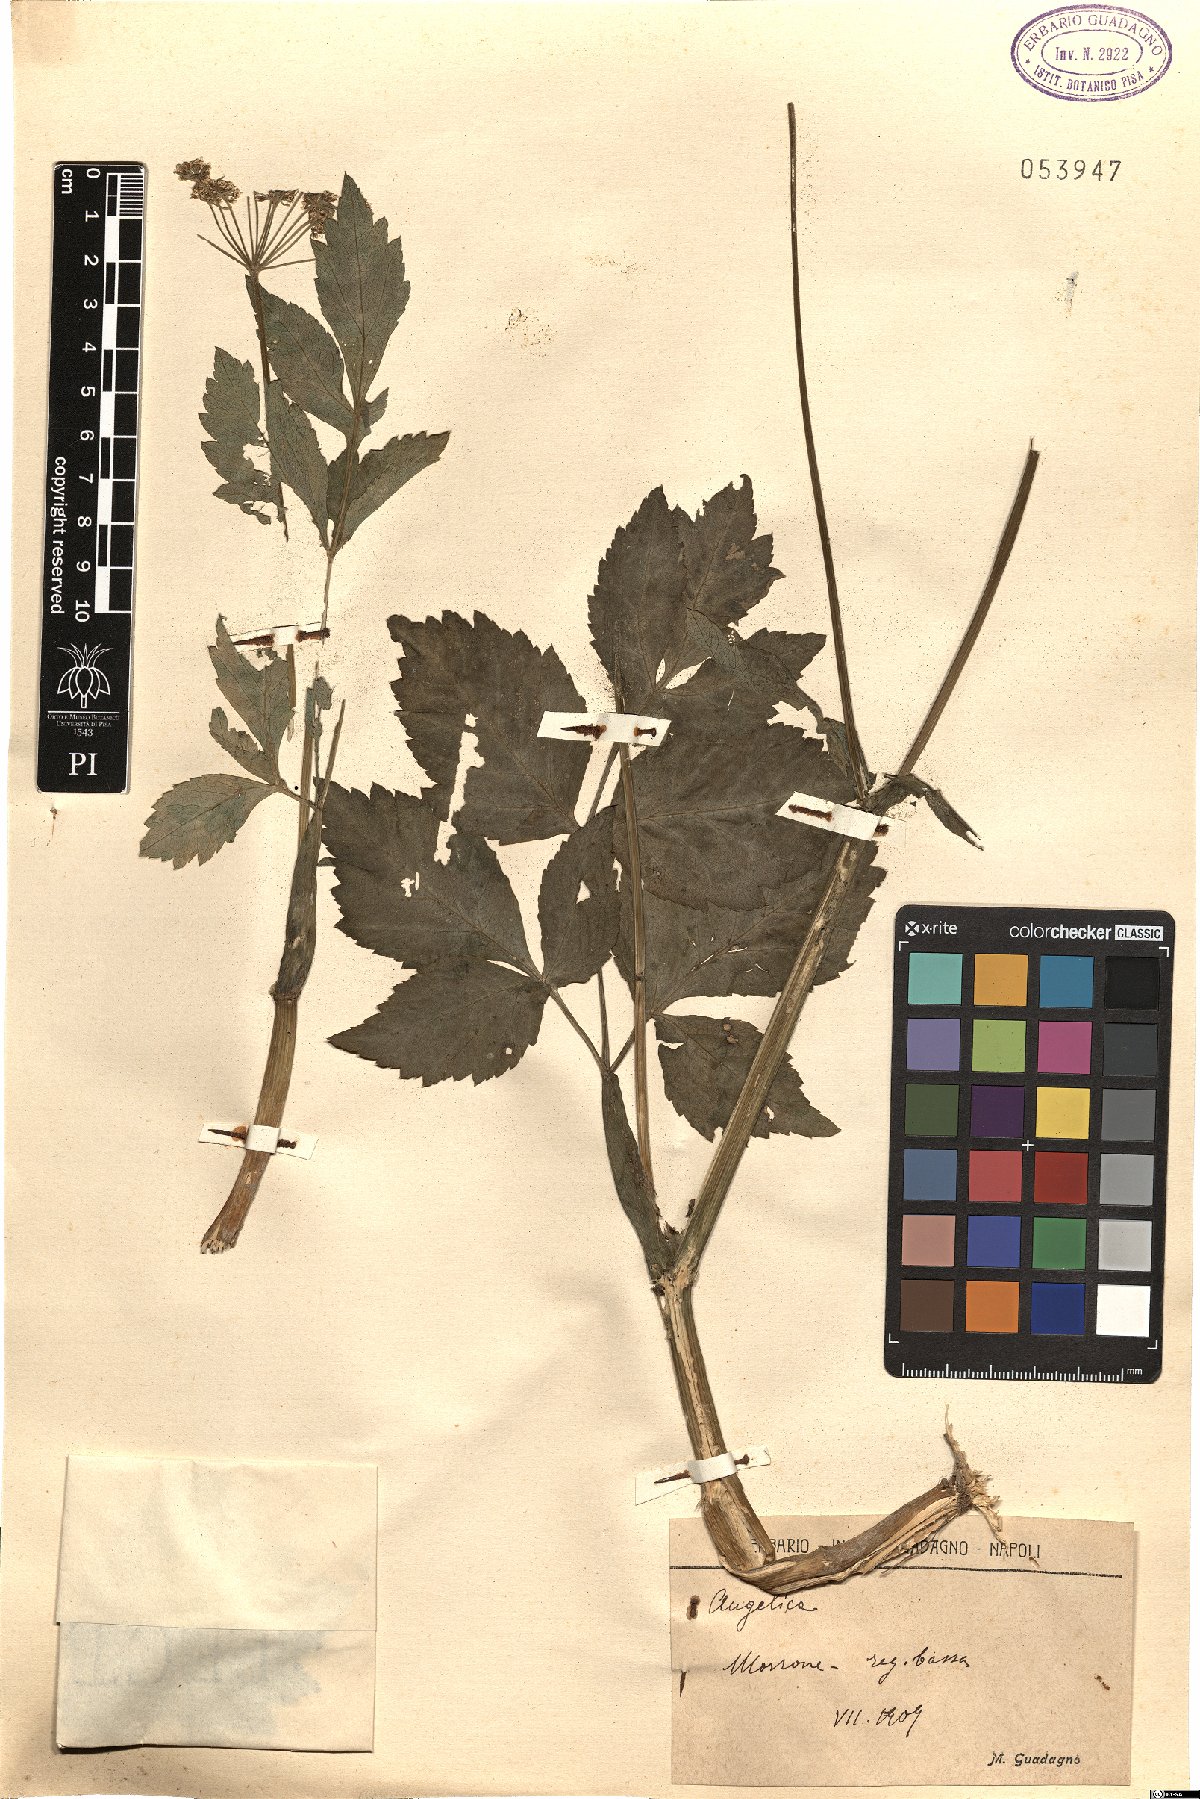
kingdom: Plantae
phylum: Tracheophyta
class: Magnoliopsida
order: Apiales
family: Apiaceae
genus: Angelica
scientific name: Angelica
